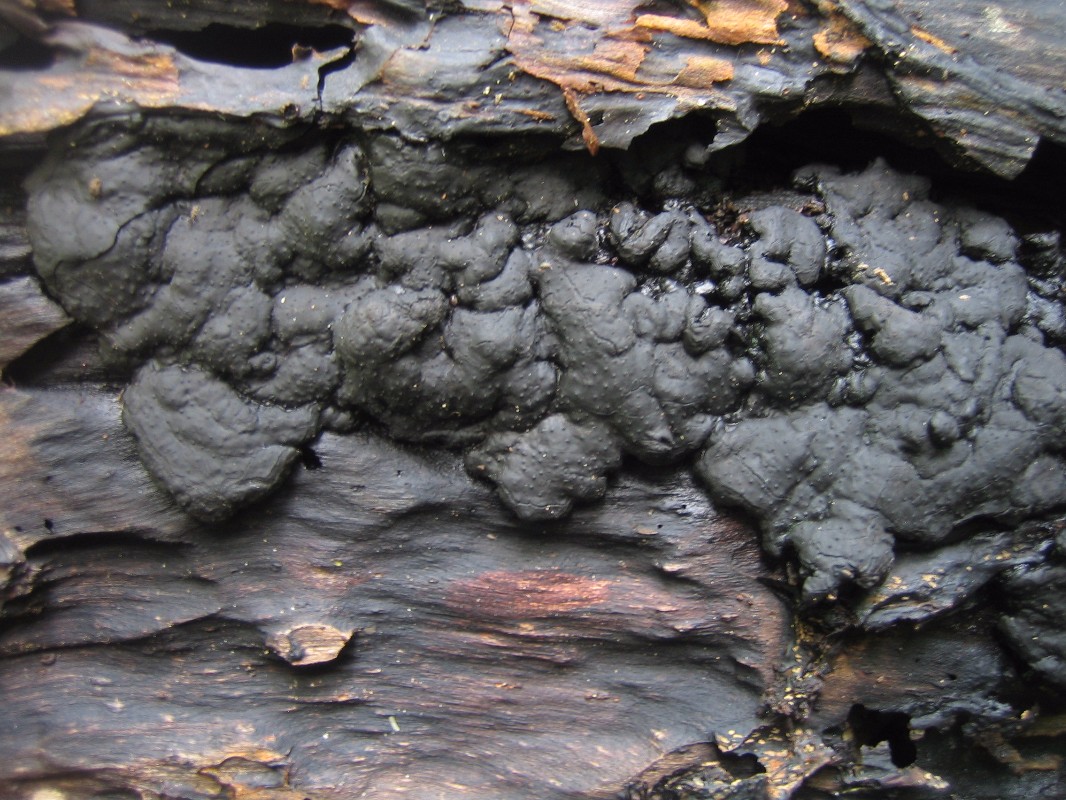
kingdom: Fungi
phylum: Ascomycota
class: Sordariomycetes
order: Xylariales
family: Xylariaceae
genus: Kretzschmaria
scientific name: Kretzschmaria deusta
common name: stor kulsvamp
